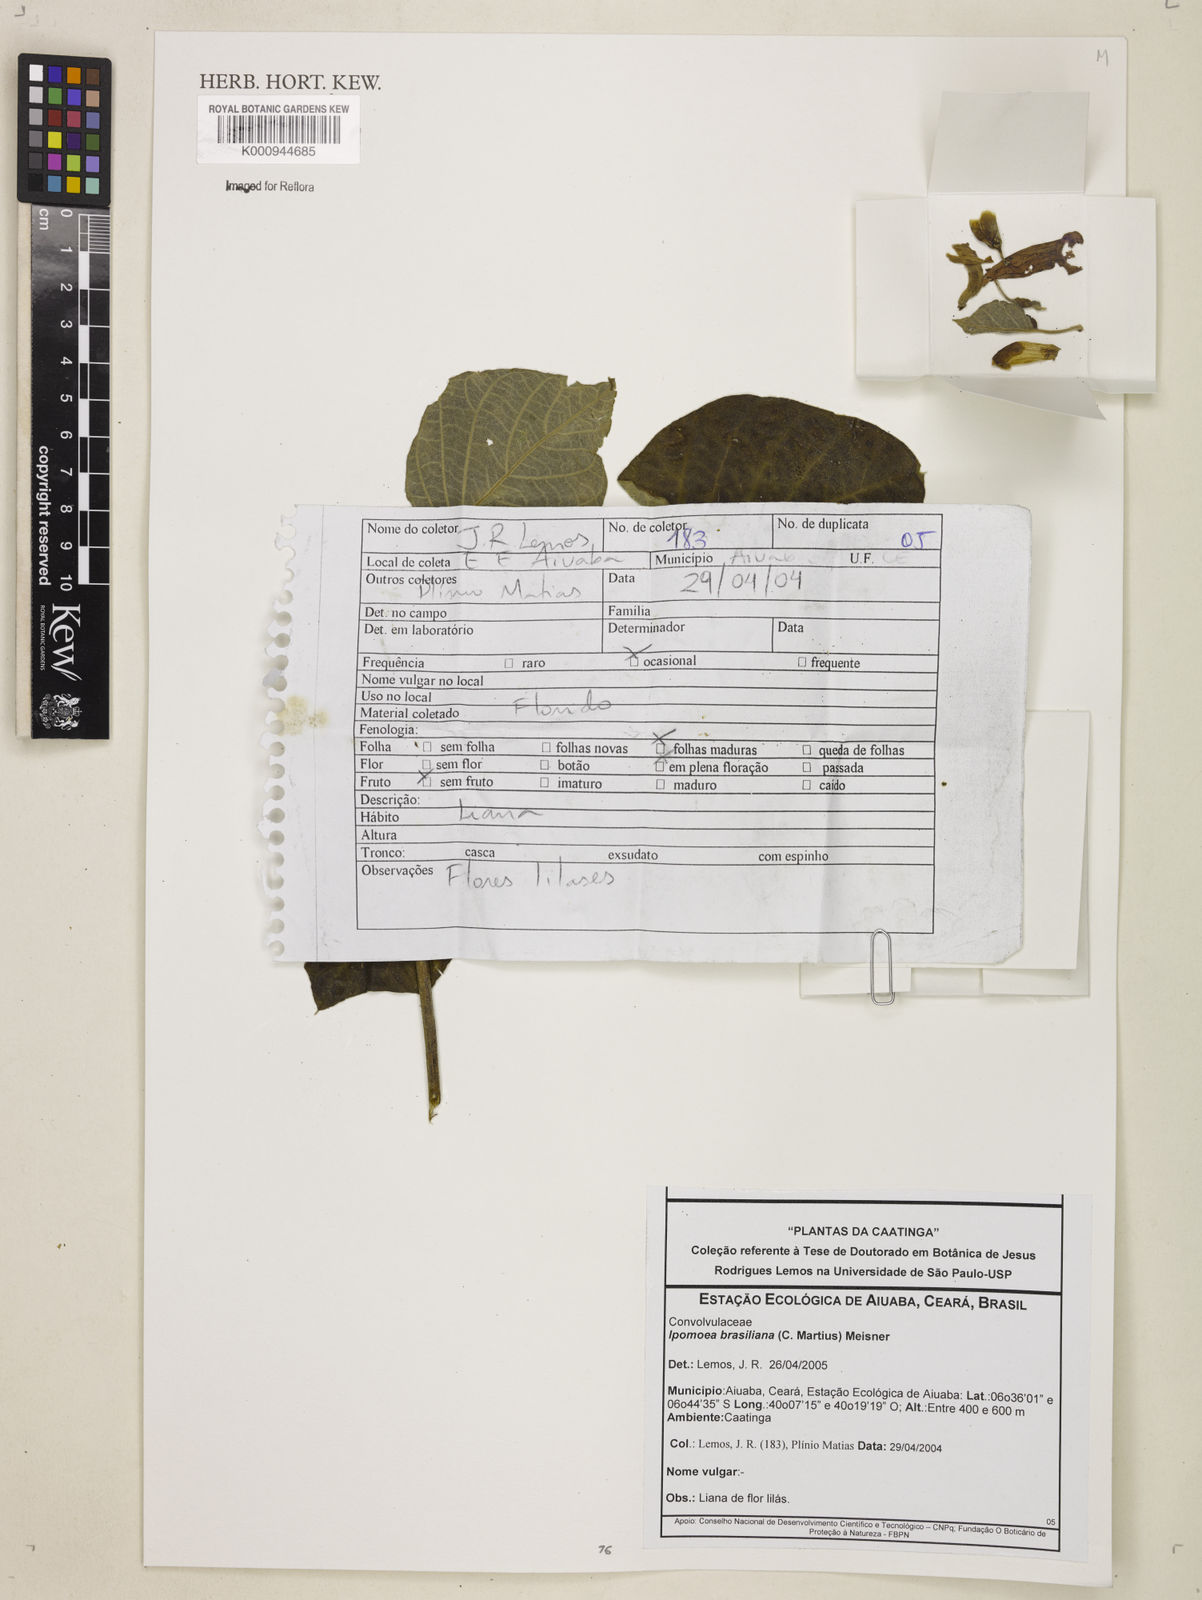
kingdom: Plantae
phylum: Tracheophyta
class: Magnoliopsida
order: Solanales
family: Convolvulaceae
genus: Ipomoea
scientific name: Ipomoea brasiliana
